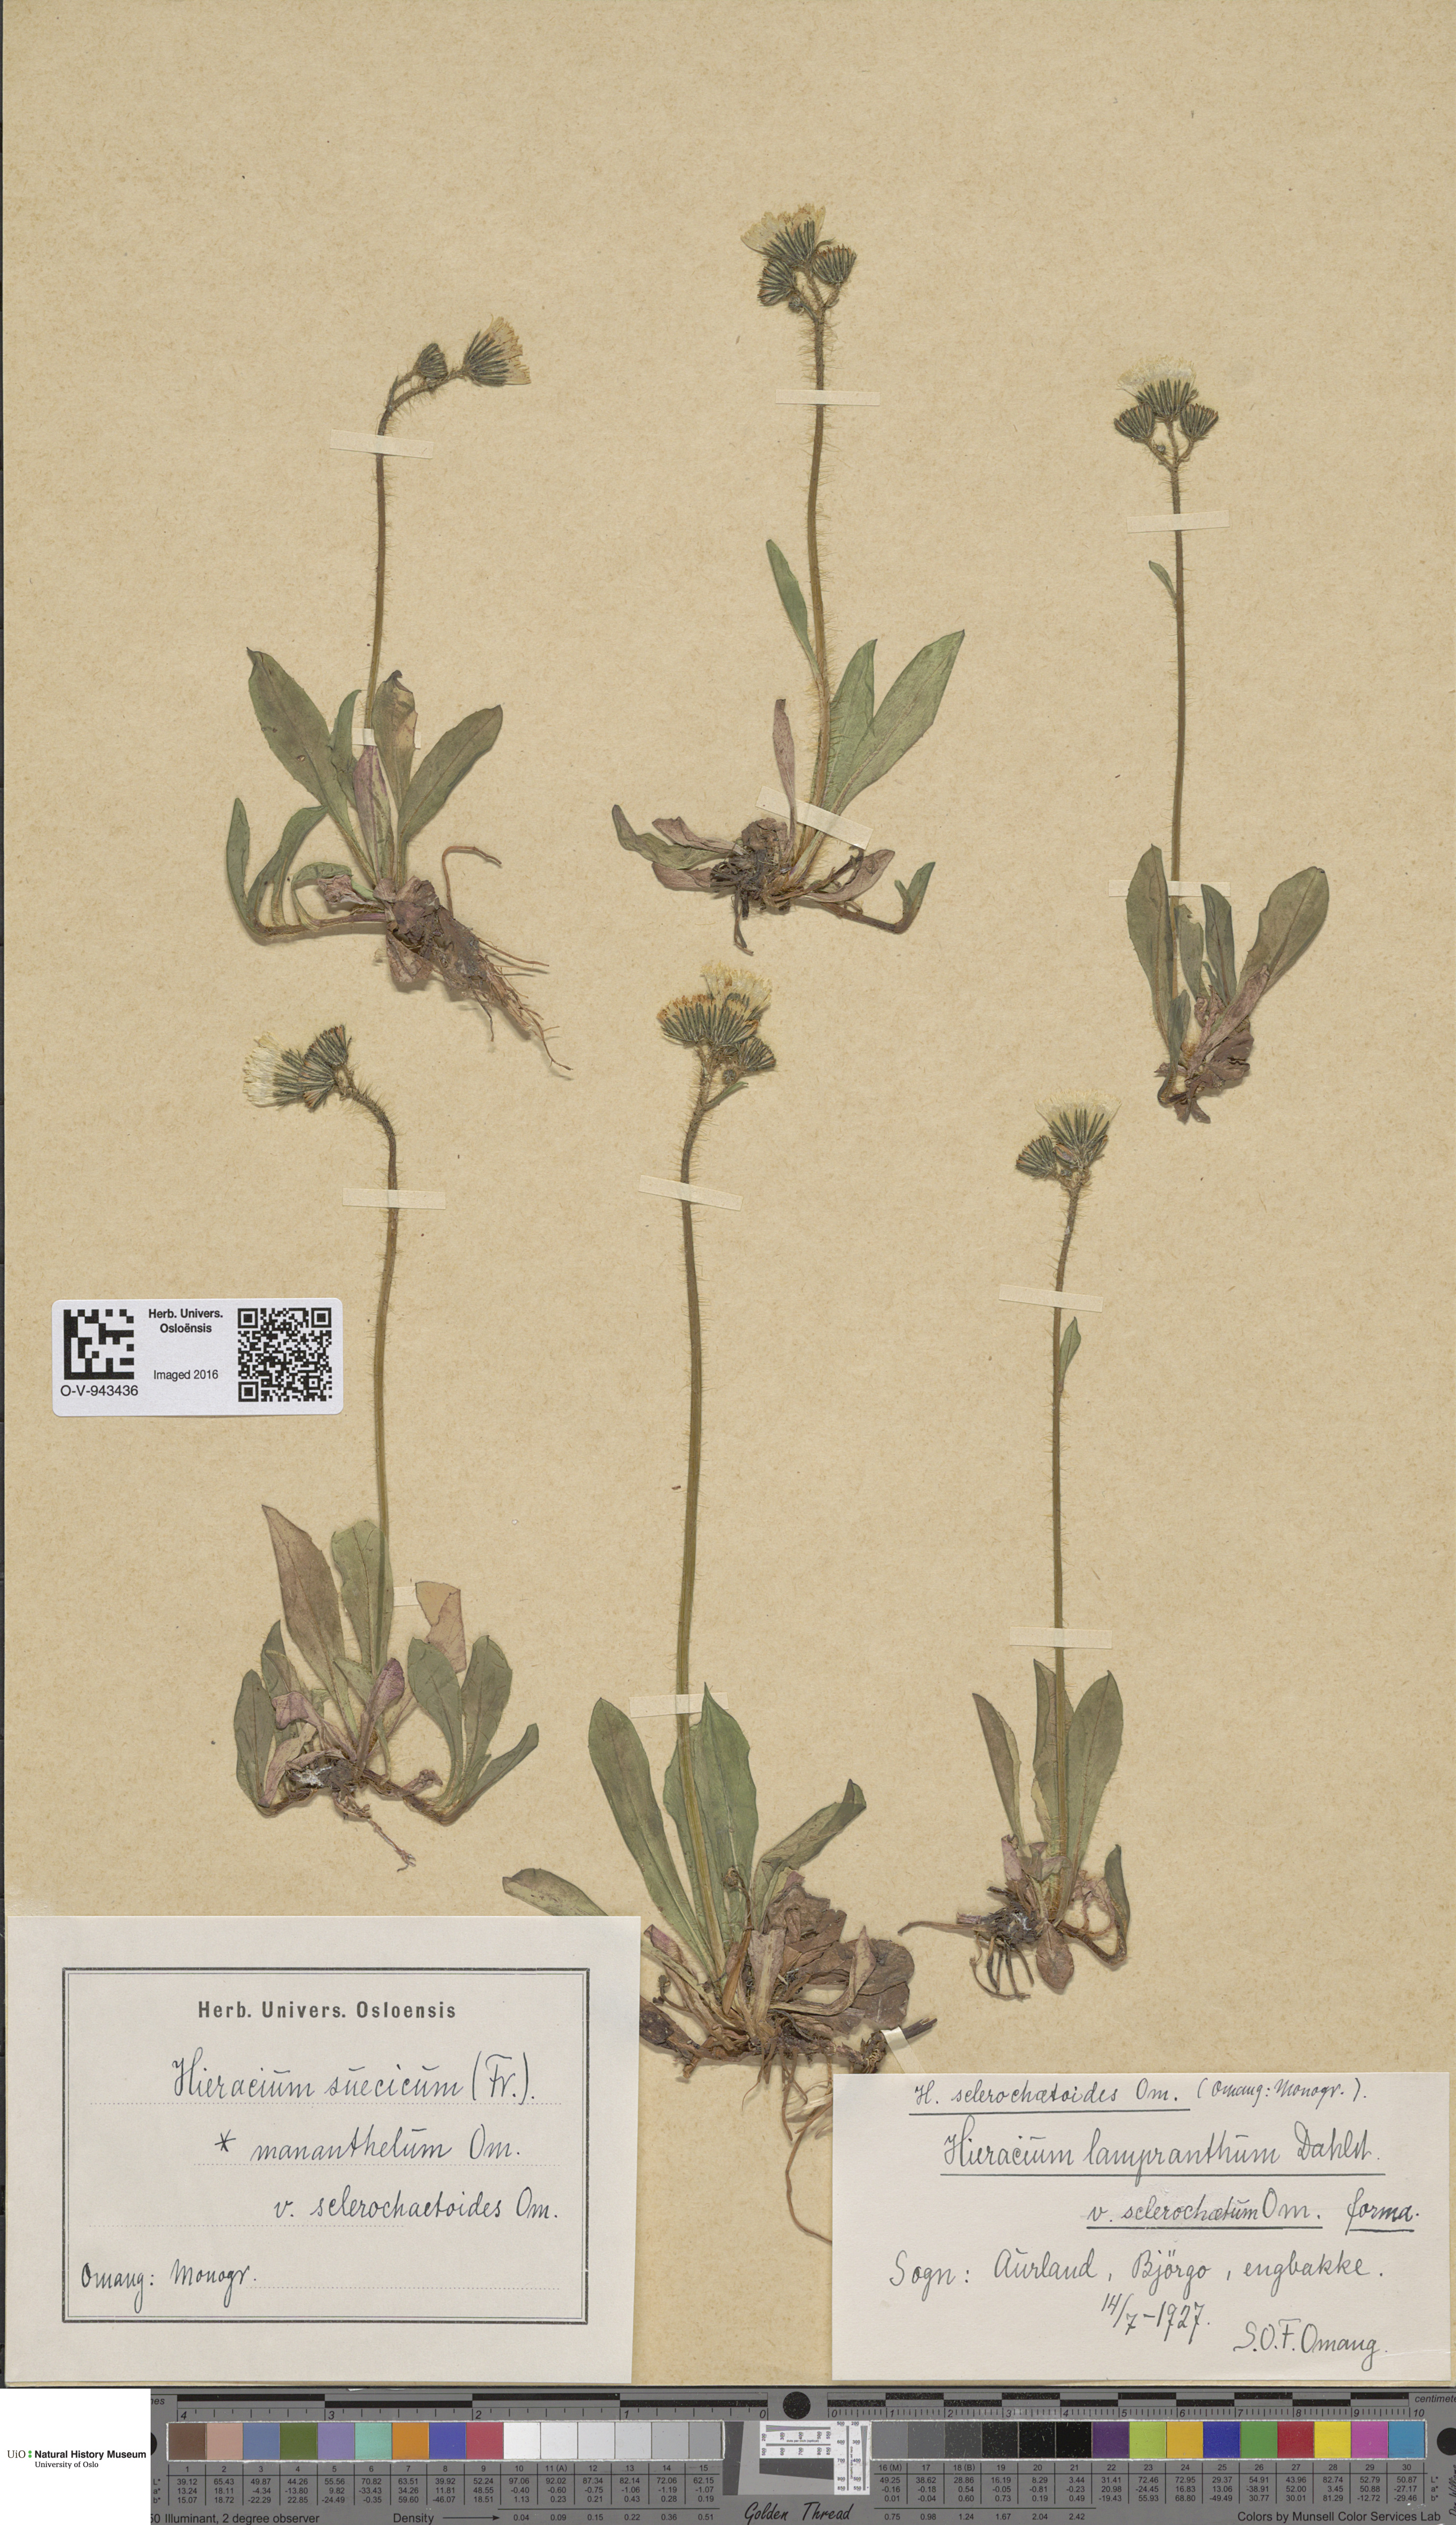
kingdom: Plantae
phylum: Tracheophyta
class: Magnoliopsida
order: Asterales
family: Asteraceae
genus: Pilosella
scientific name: Pilosella dubia
